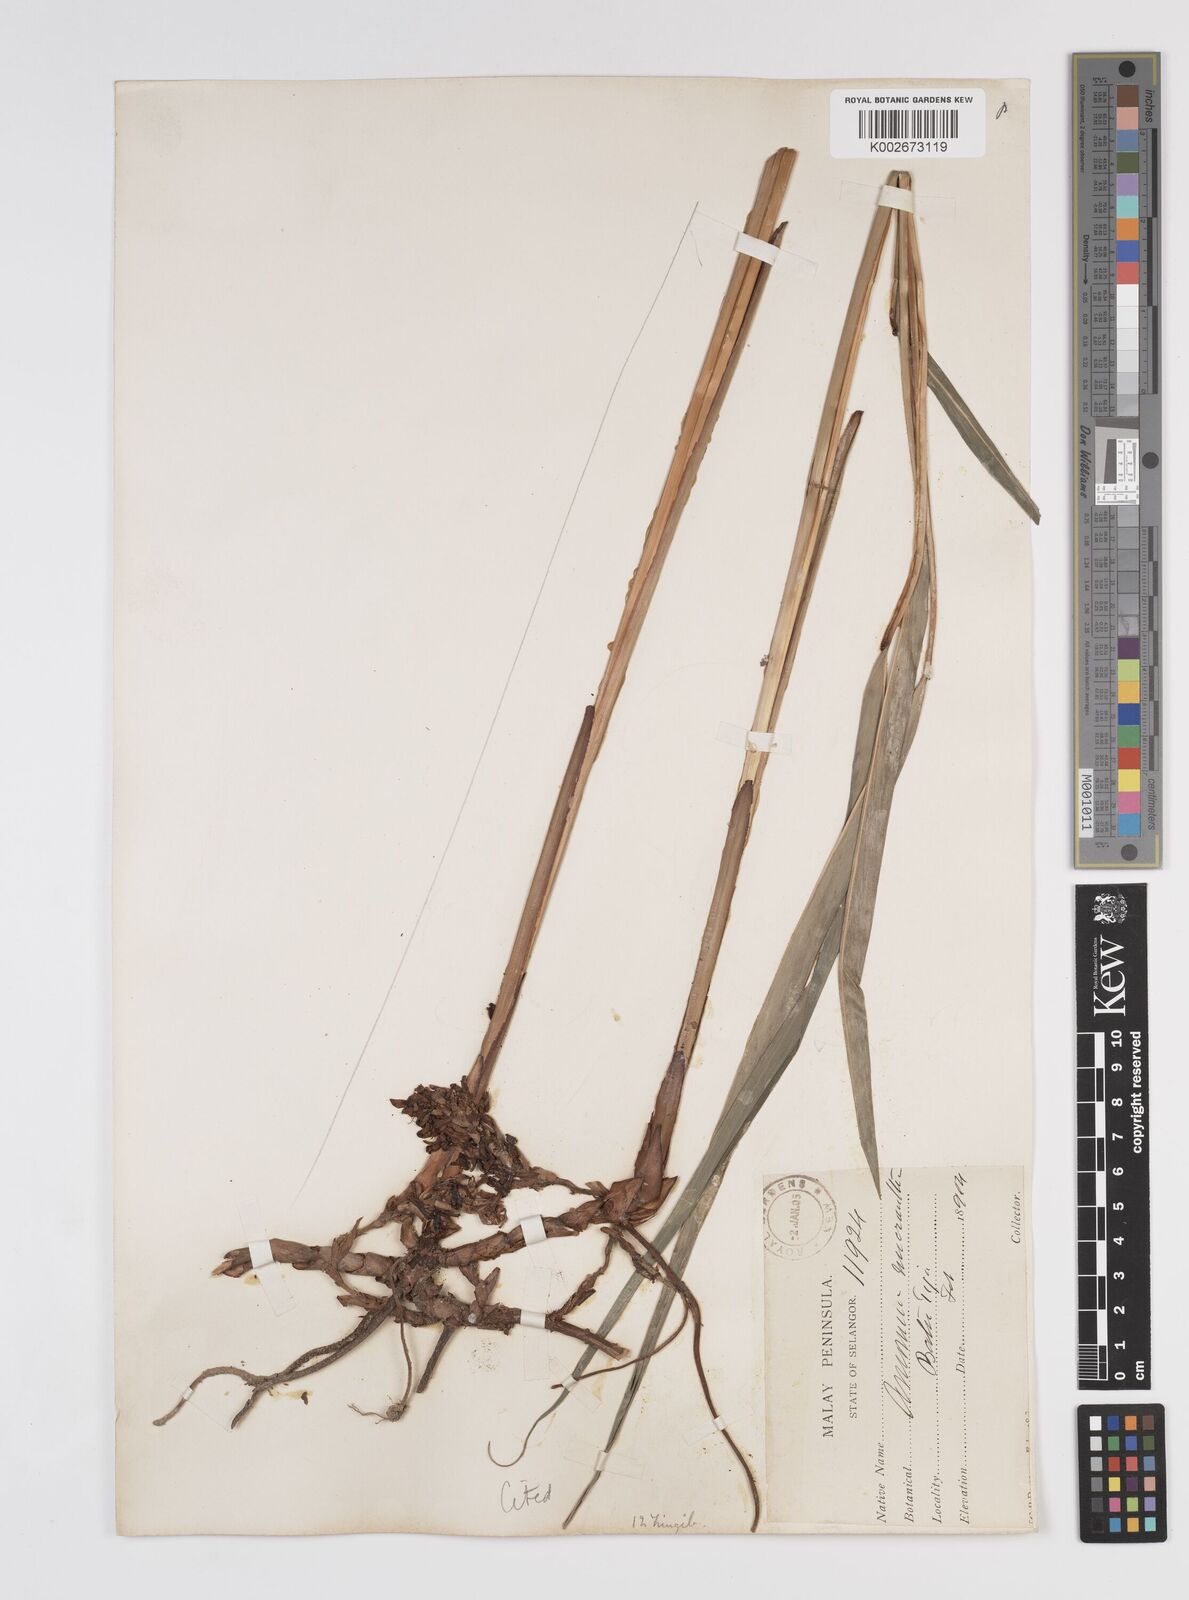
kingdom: Plantae
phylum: Tracheophyta
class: Liliopsida
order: Zingiberales
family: Zingiberaceae
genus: Wurfbainia
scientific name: Wurfbainia micrantha
